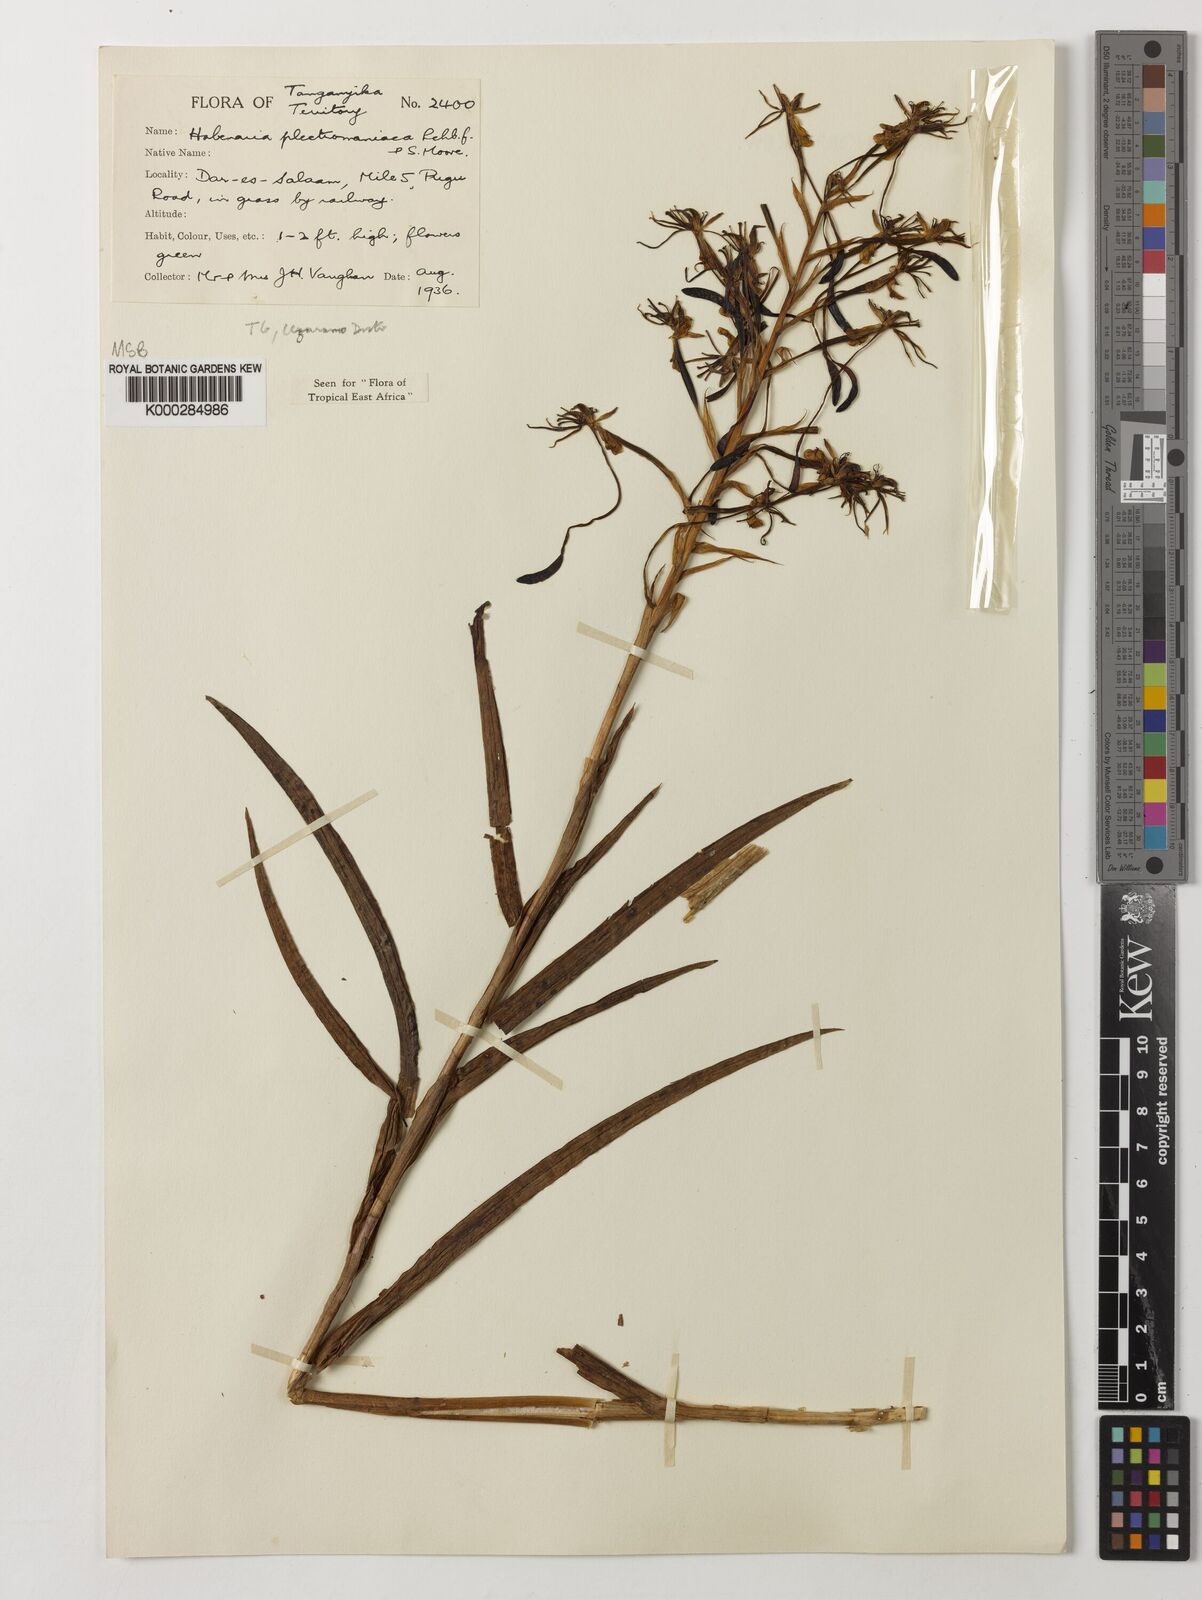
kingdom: Plantae
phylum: Tracheophyta
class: Liliopsida
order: Asparagales
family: Orchidaceae
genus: Habenaria
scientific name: Habenaria plectromaniaca
